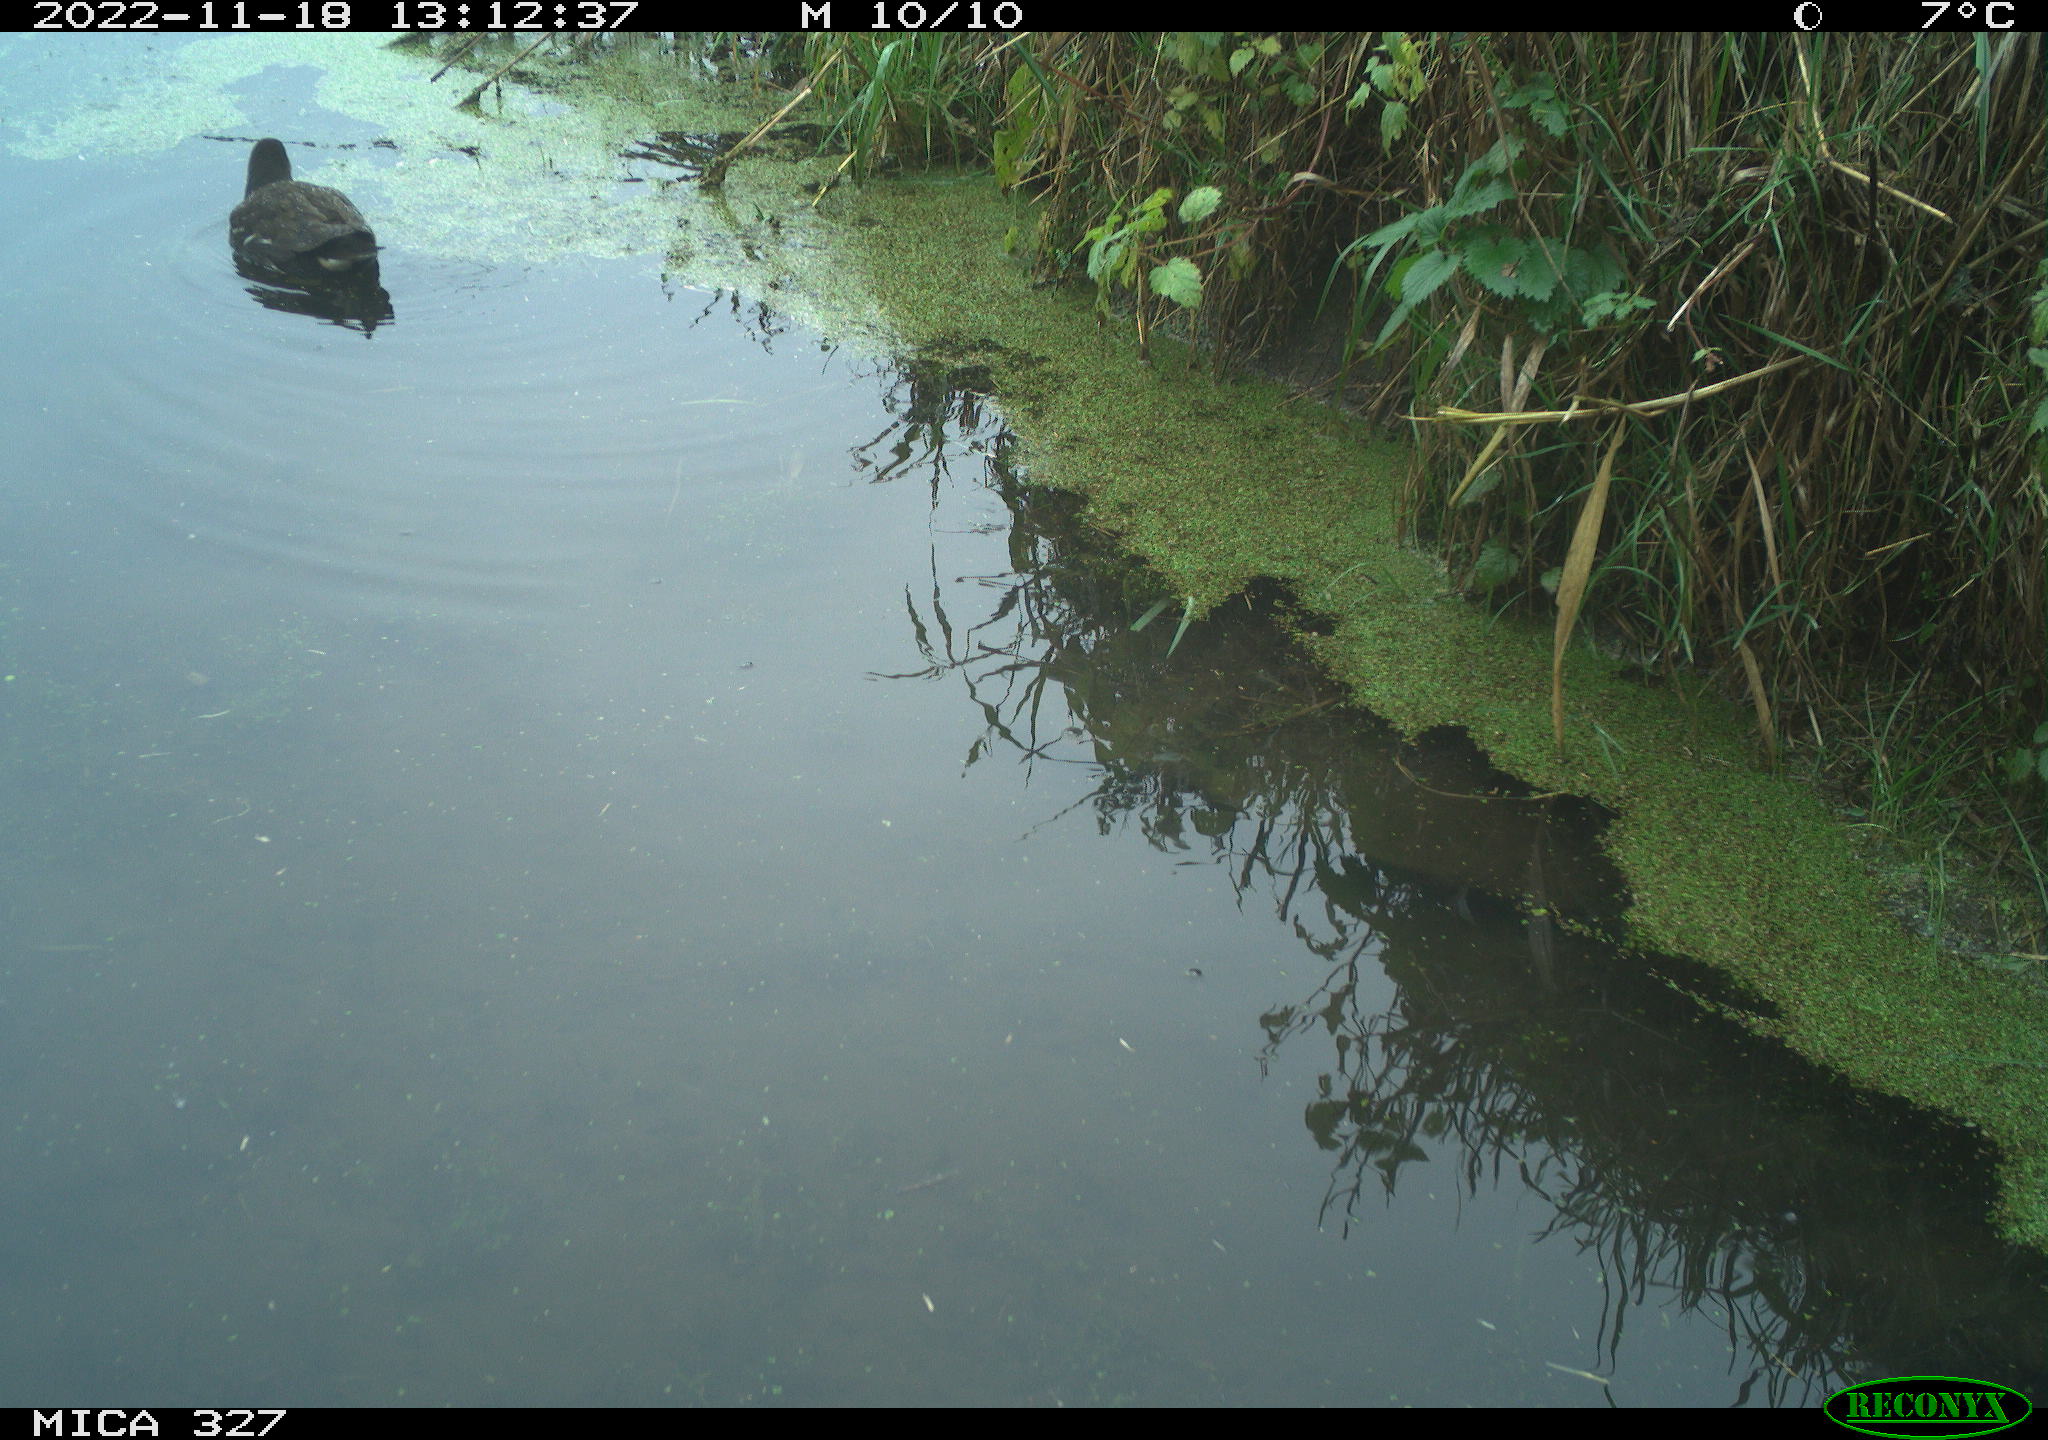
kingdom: Animalia
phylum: Chordata
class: Aves
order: Gruiformes
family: Rallidae
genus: Gallinula
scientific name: Gallinula chloropus
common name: Common moorhen
